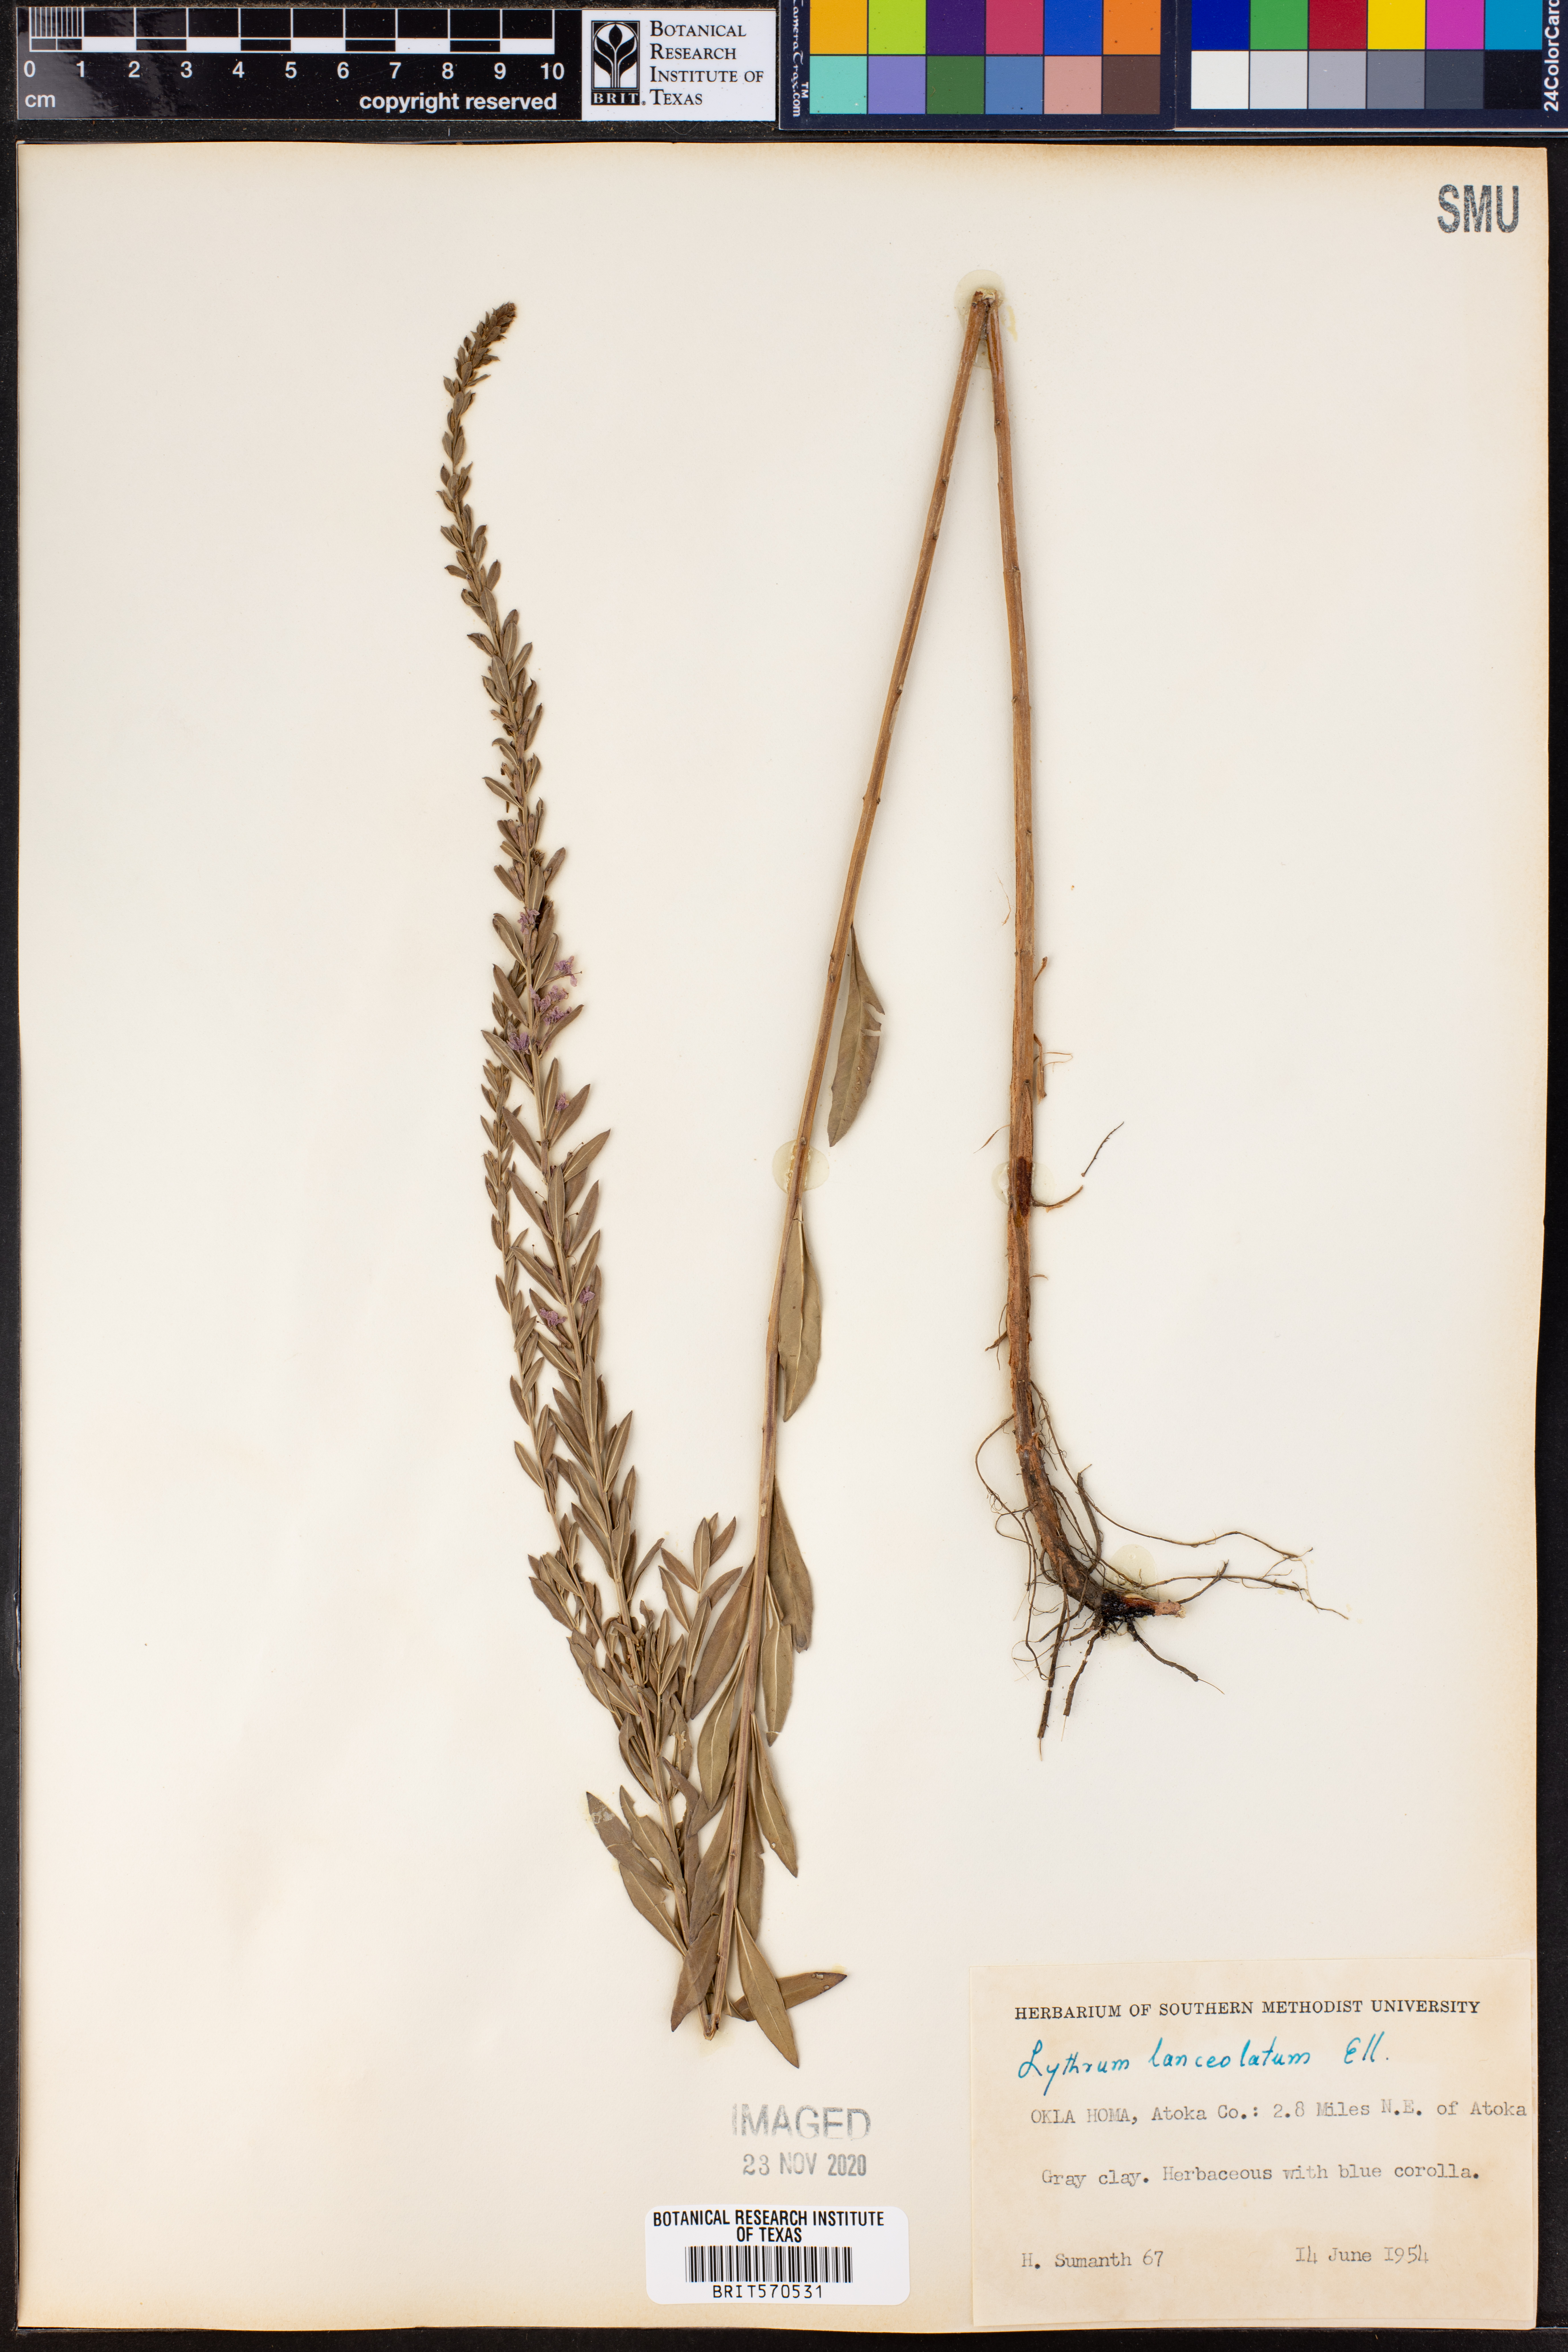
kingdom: Plantae
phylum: Tracheophyta
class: Magnoliopsida
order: Myrtales
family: Lythraceae
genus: Lythrum
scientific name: Lythrum alatum
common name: Winged loosestrife
